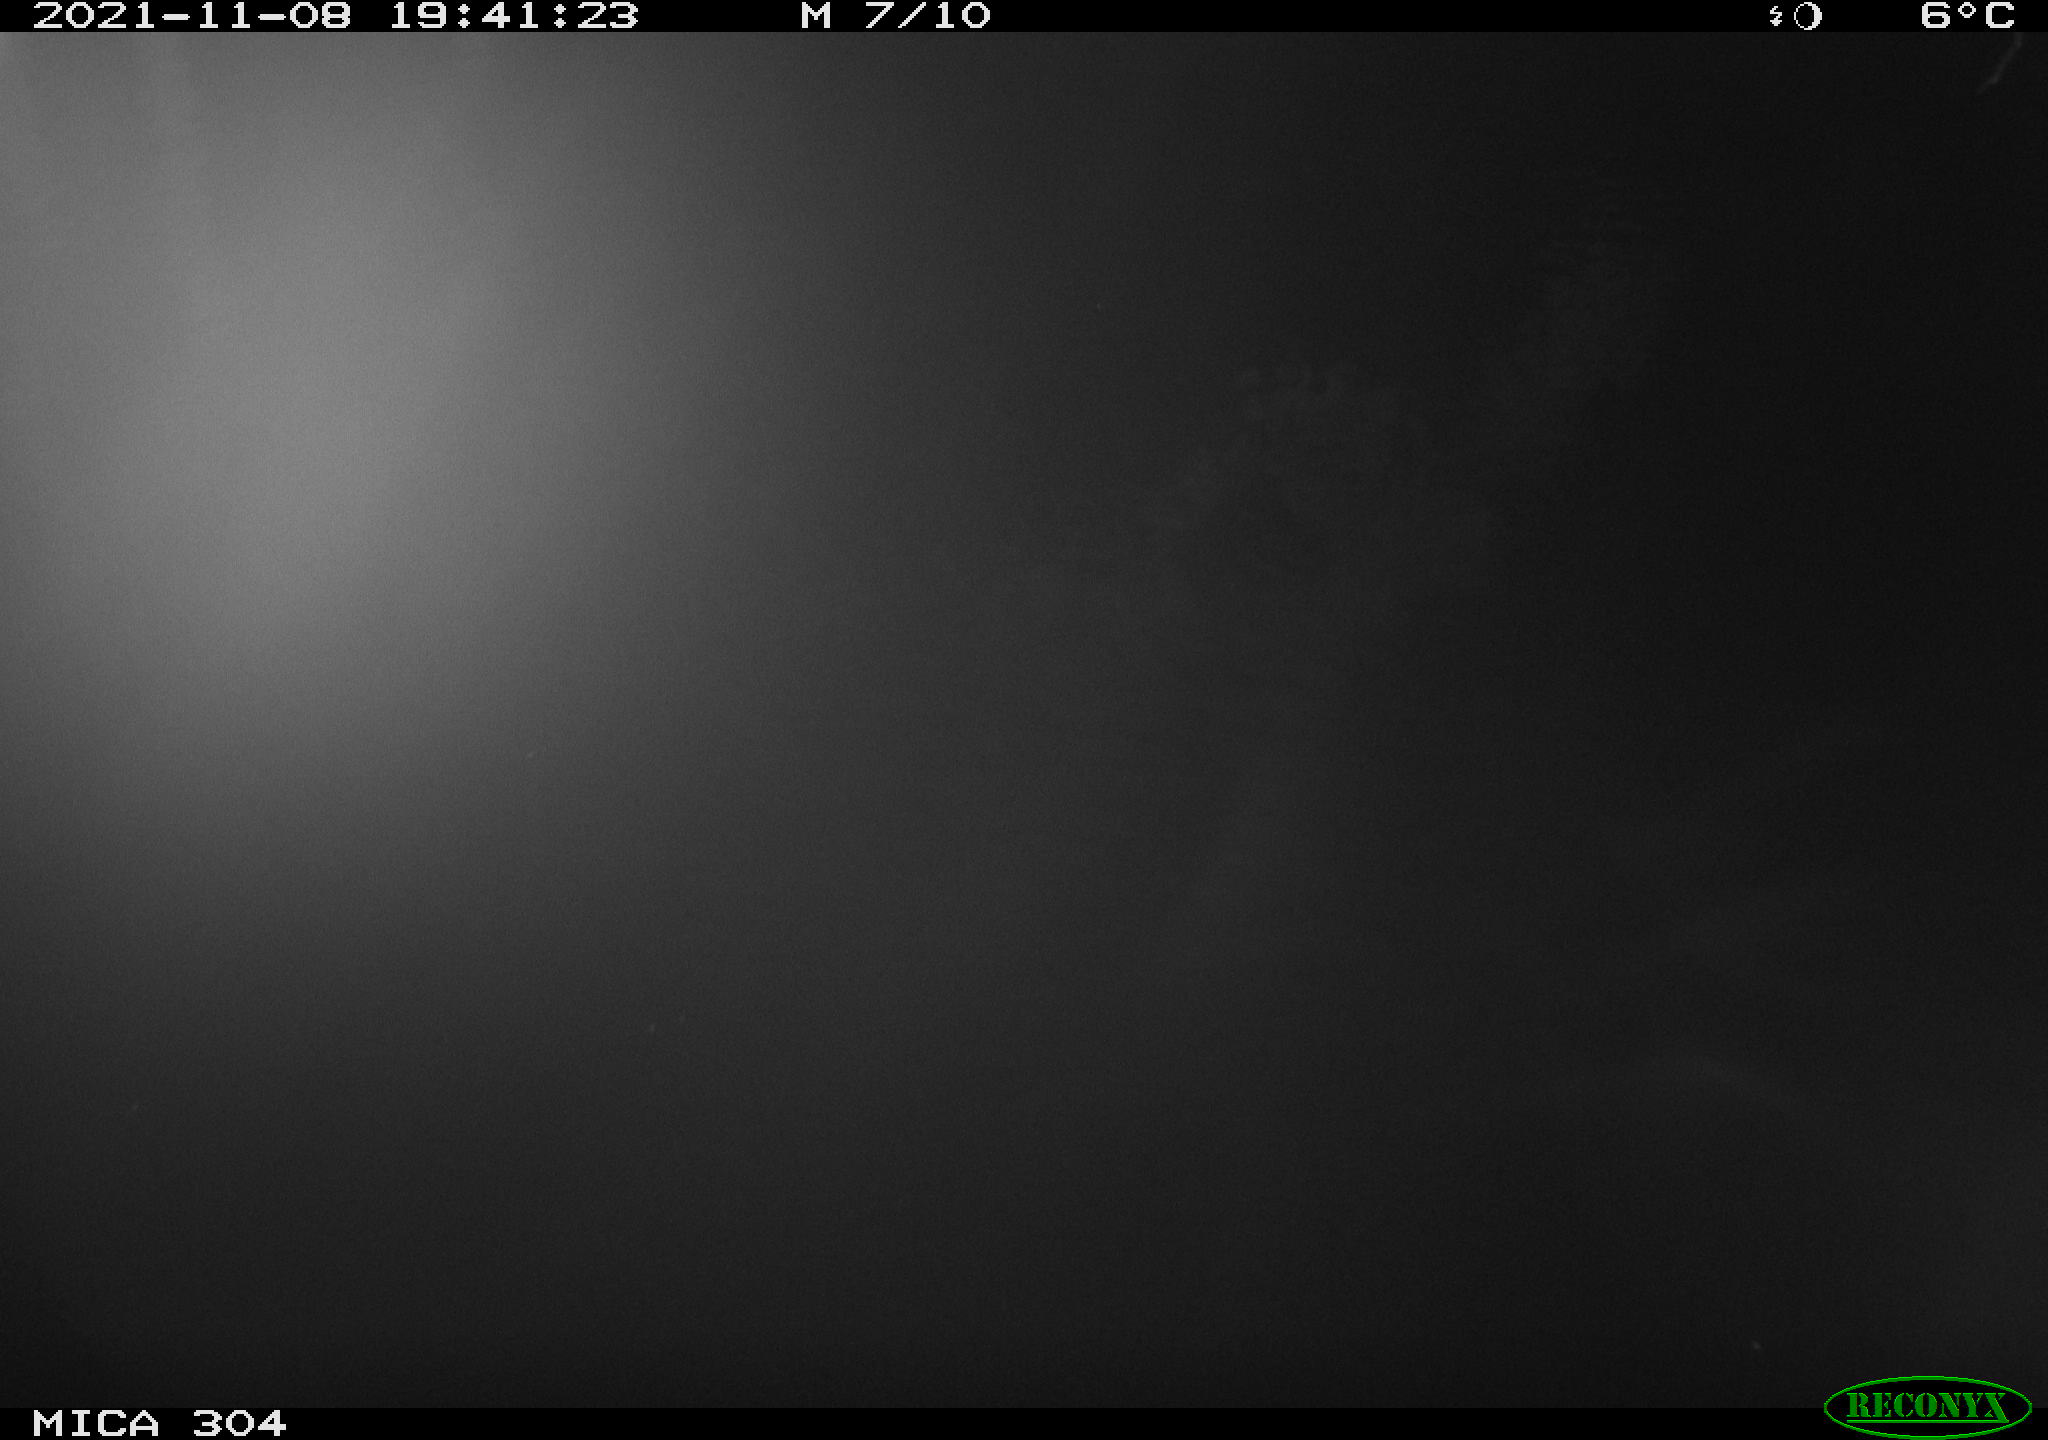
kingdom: Animalia
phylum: Chordata
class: Mammalia
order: Rodentia
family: Muridae
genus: Rattus
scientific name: Rattus norvegicus
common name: Brown rat
